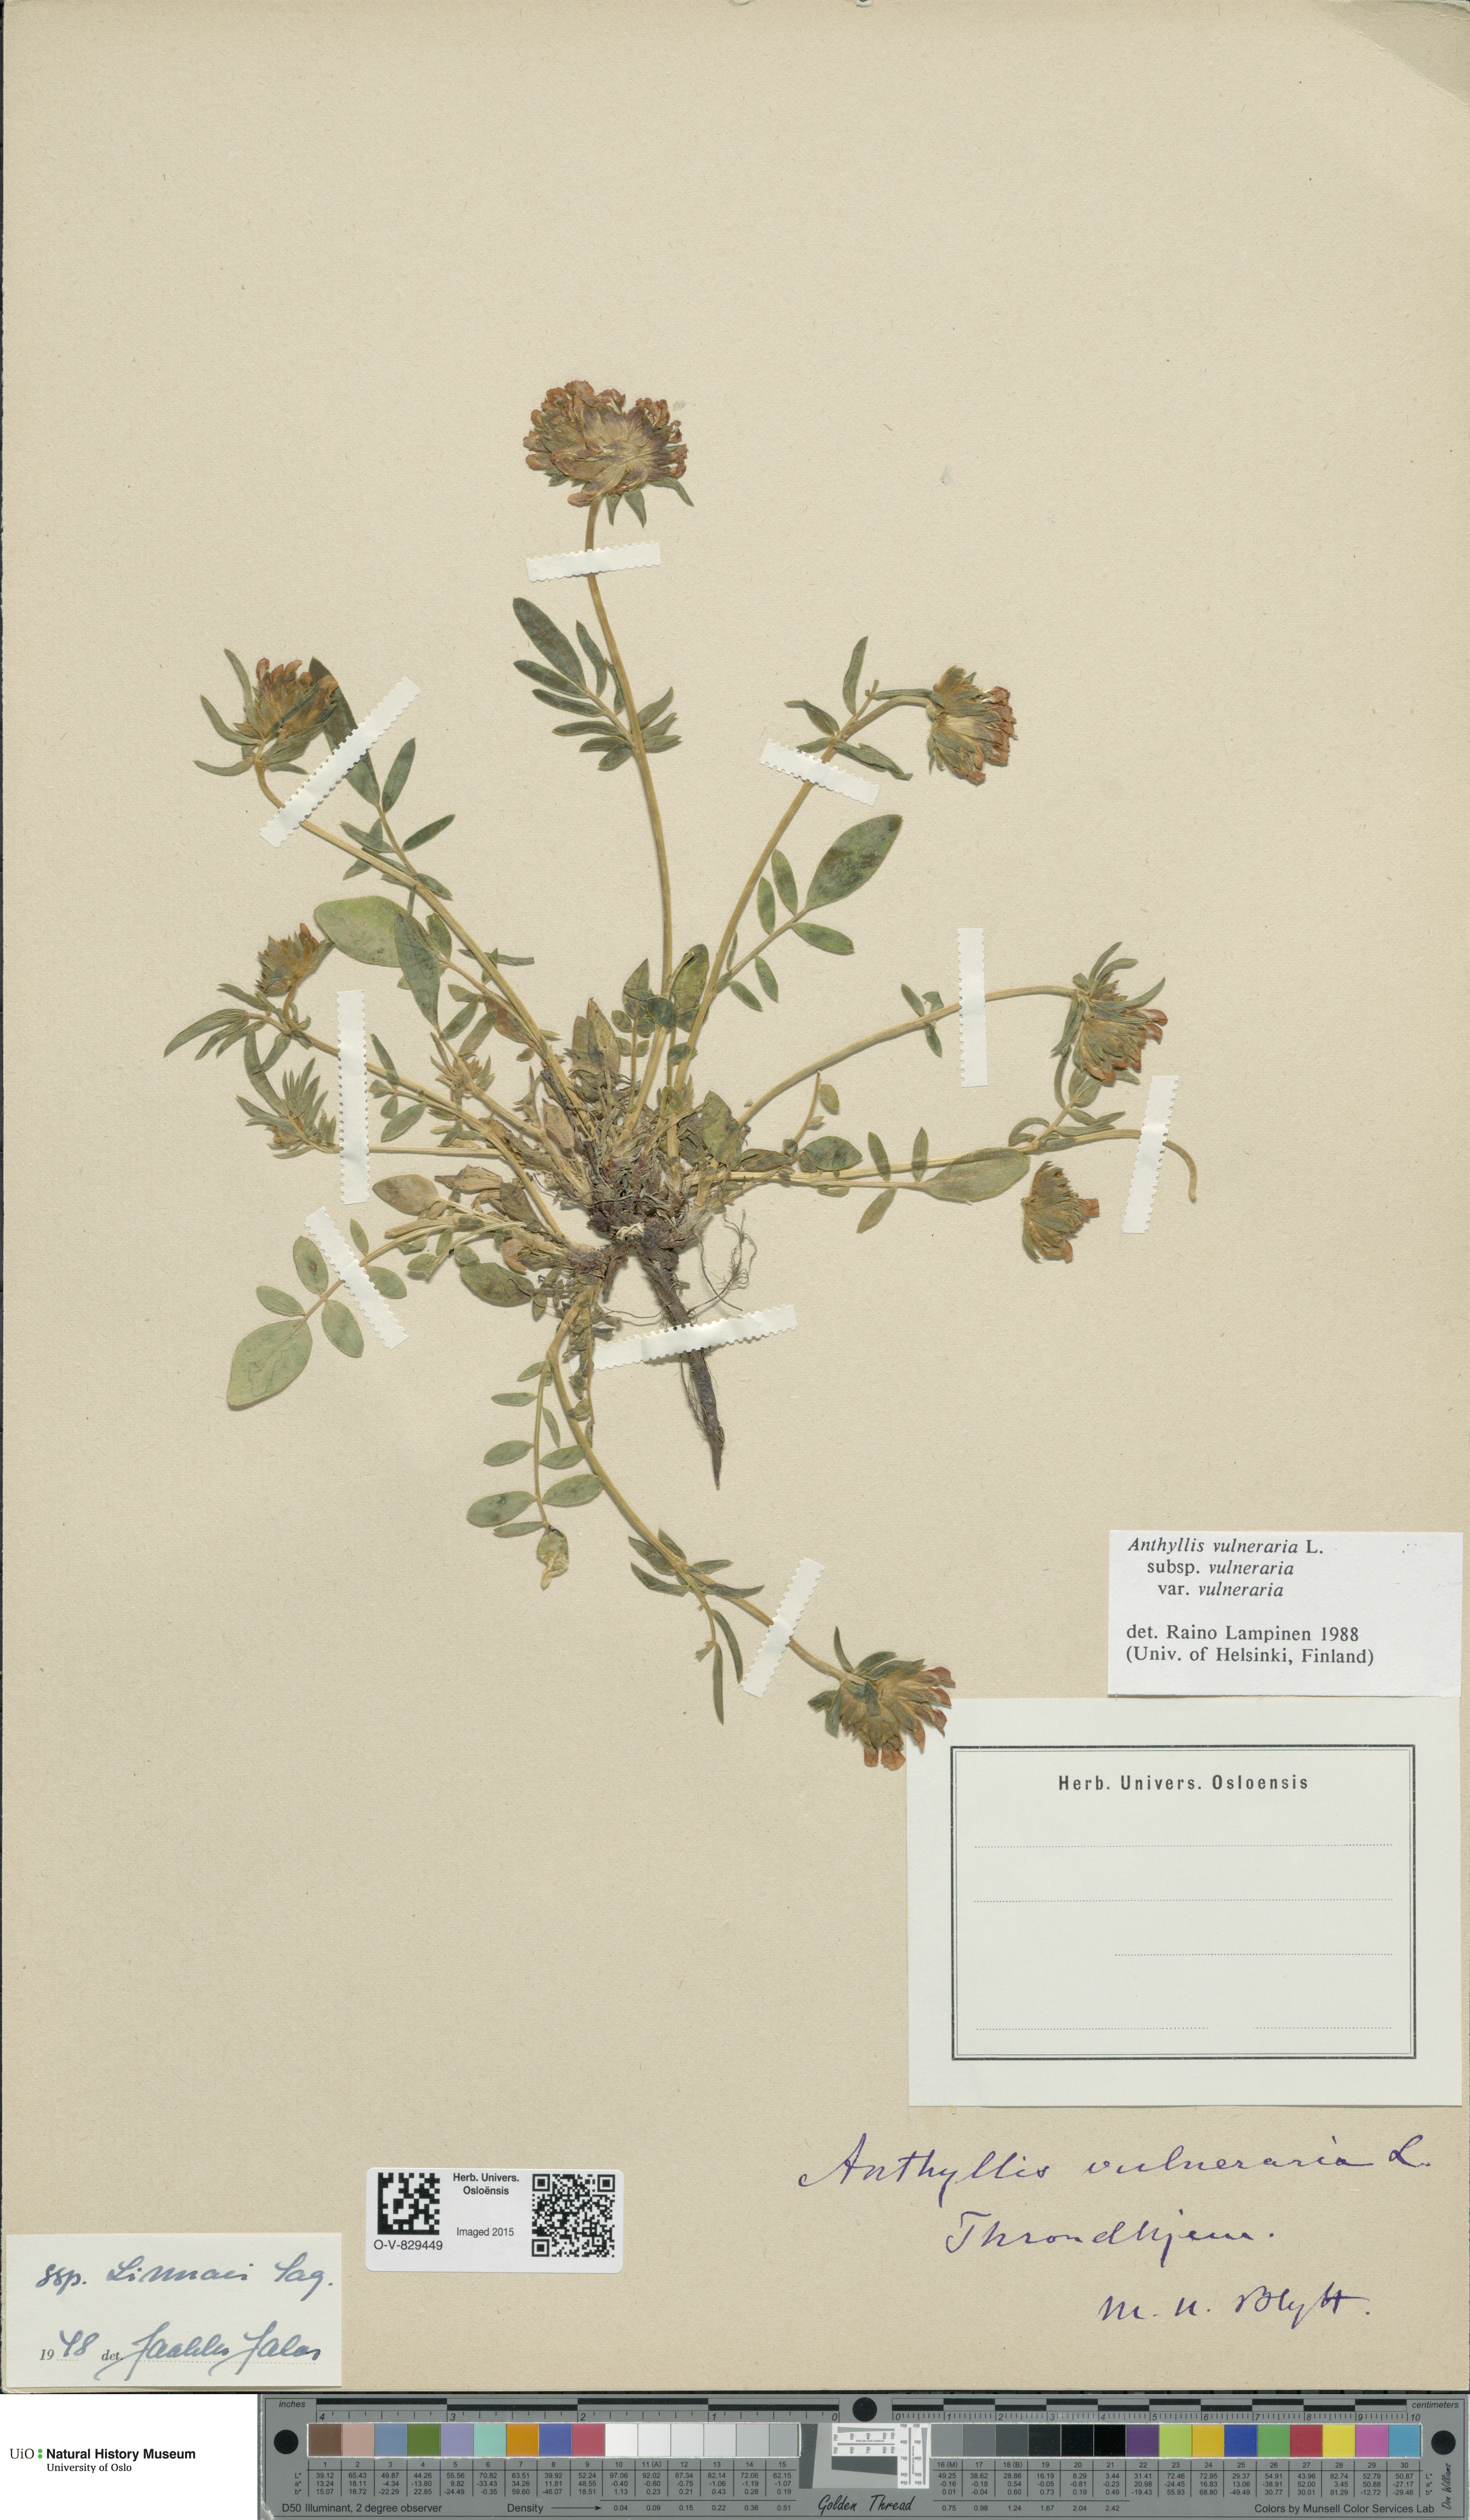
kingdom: Plantae
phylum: Tracheophyta
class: Magnoliopsida
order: Fabales
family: Fabaceae
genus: Anthyllis
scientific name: Anthyllis vulneraria
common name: Kidney vetch
